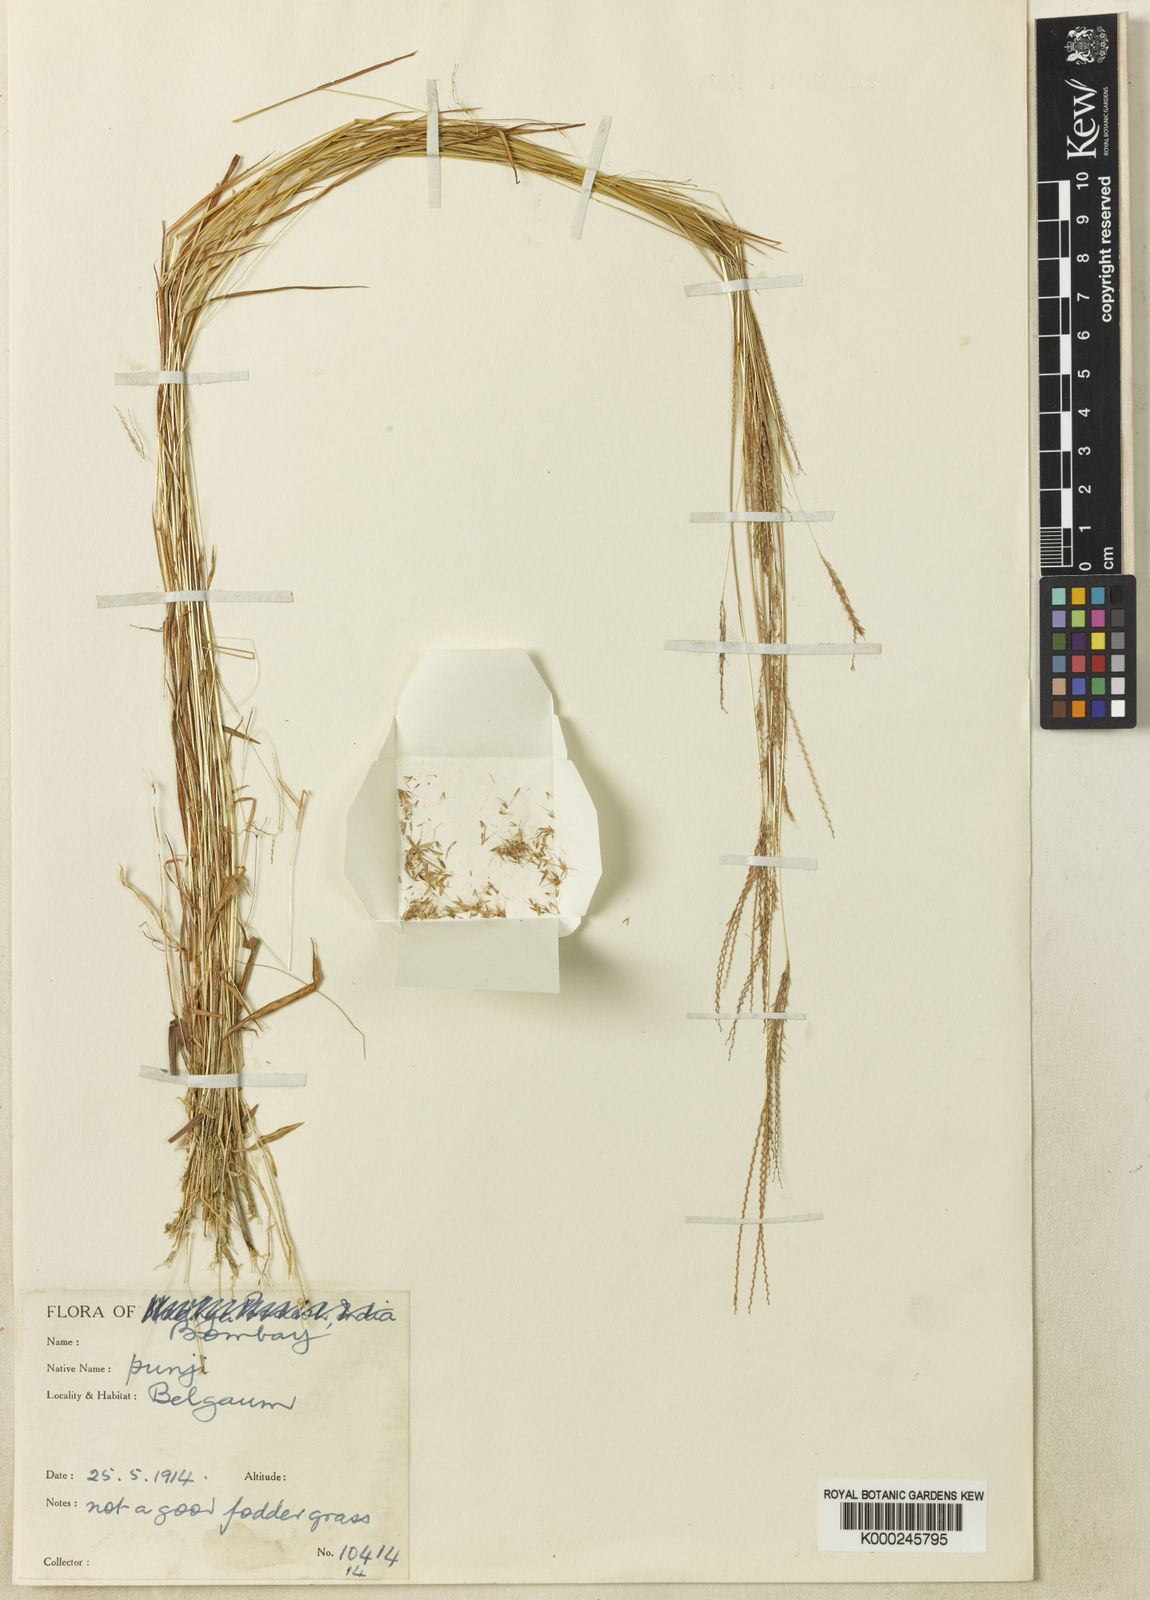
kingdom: Plantae
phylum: Tracheophyta
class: Liliopsida
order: Poales
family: Poaceae
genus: Dimeria
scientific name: Dimeria ornithopoda
